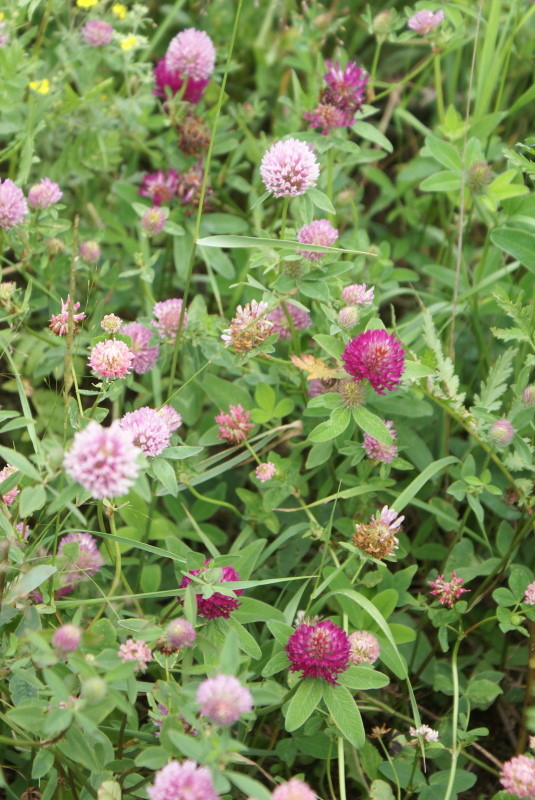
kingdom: Plantae
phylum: Tracheophyta
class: Magnoliopsida
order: Fabales
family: Fabaceae
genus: Trifolium
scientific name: Trifolium medium
